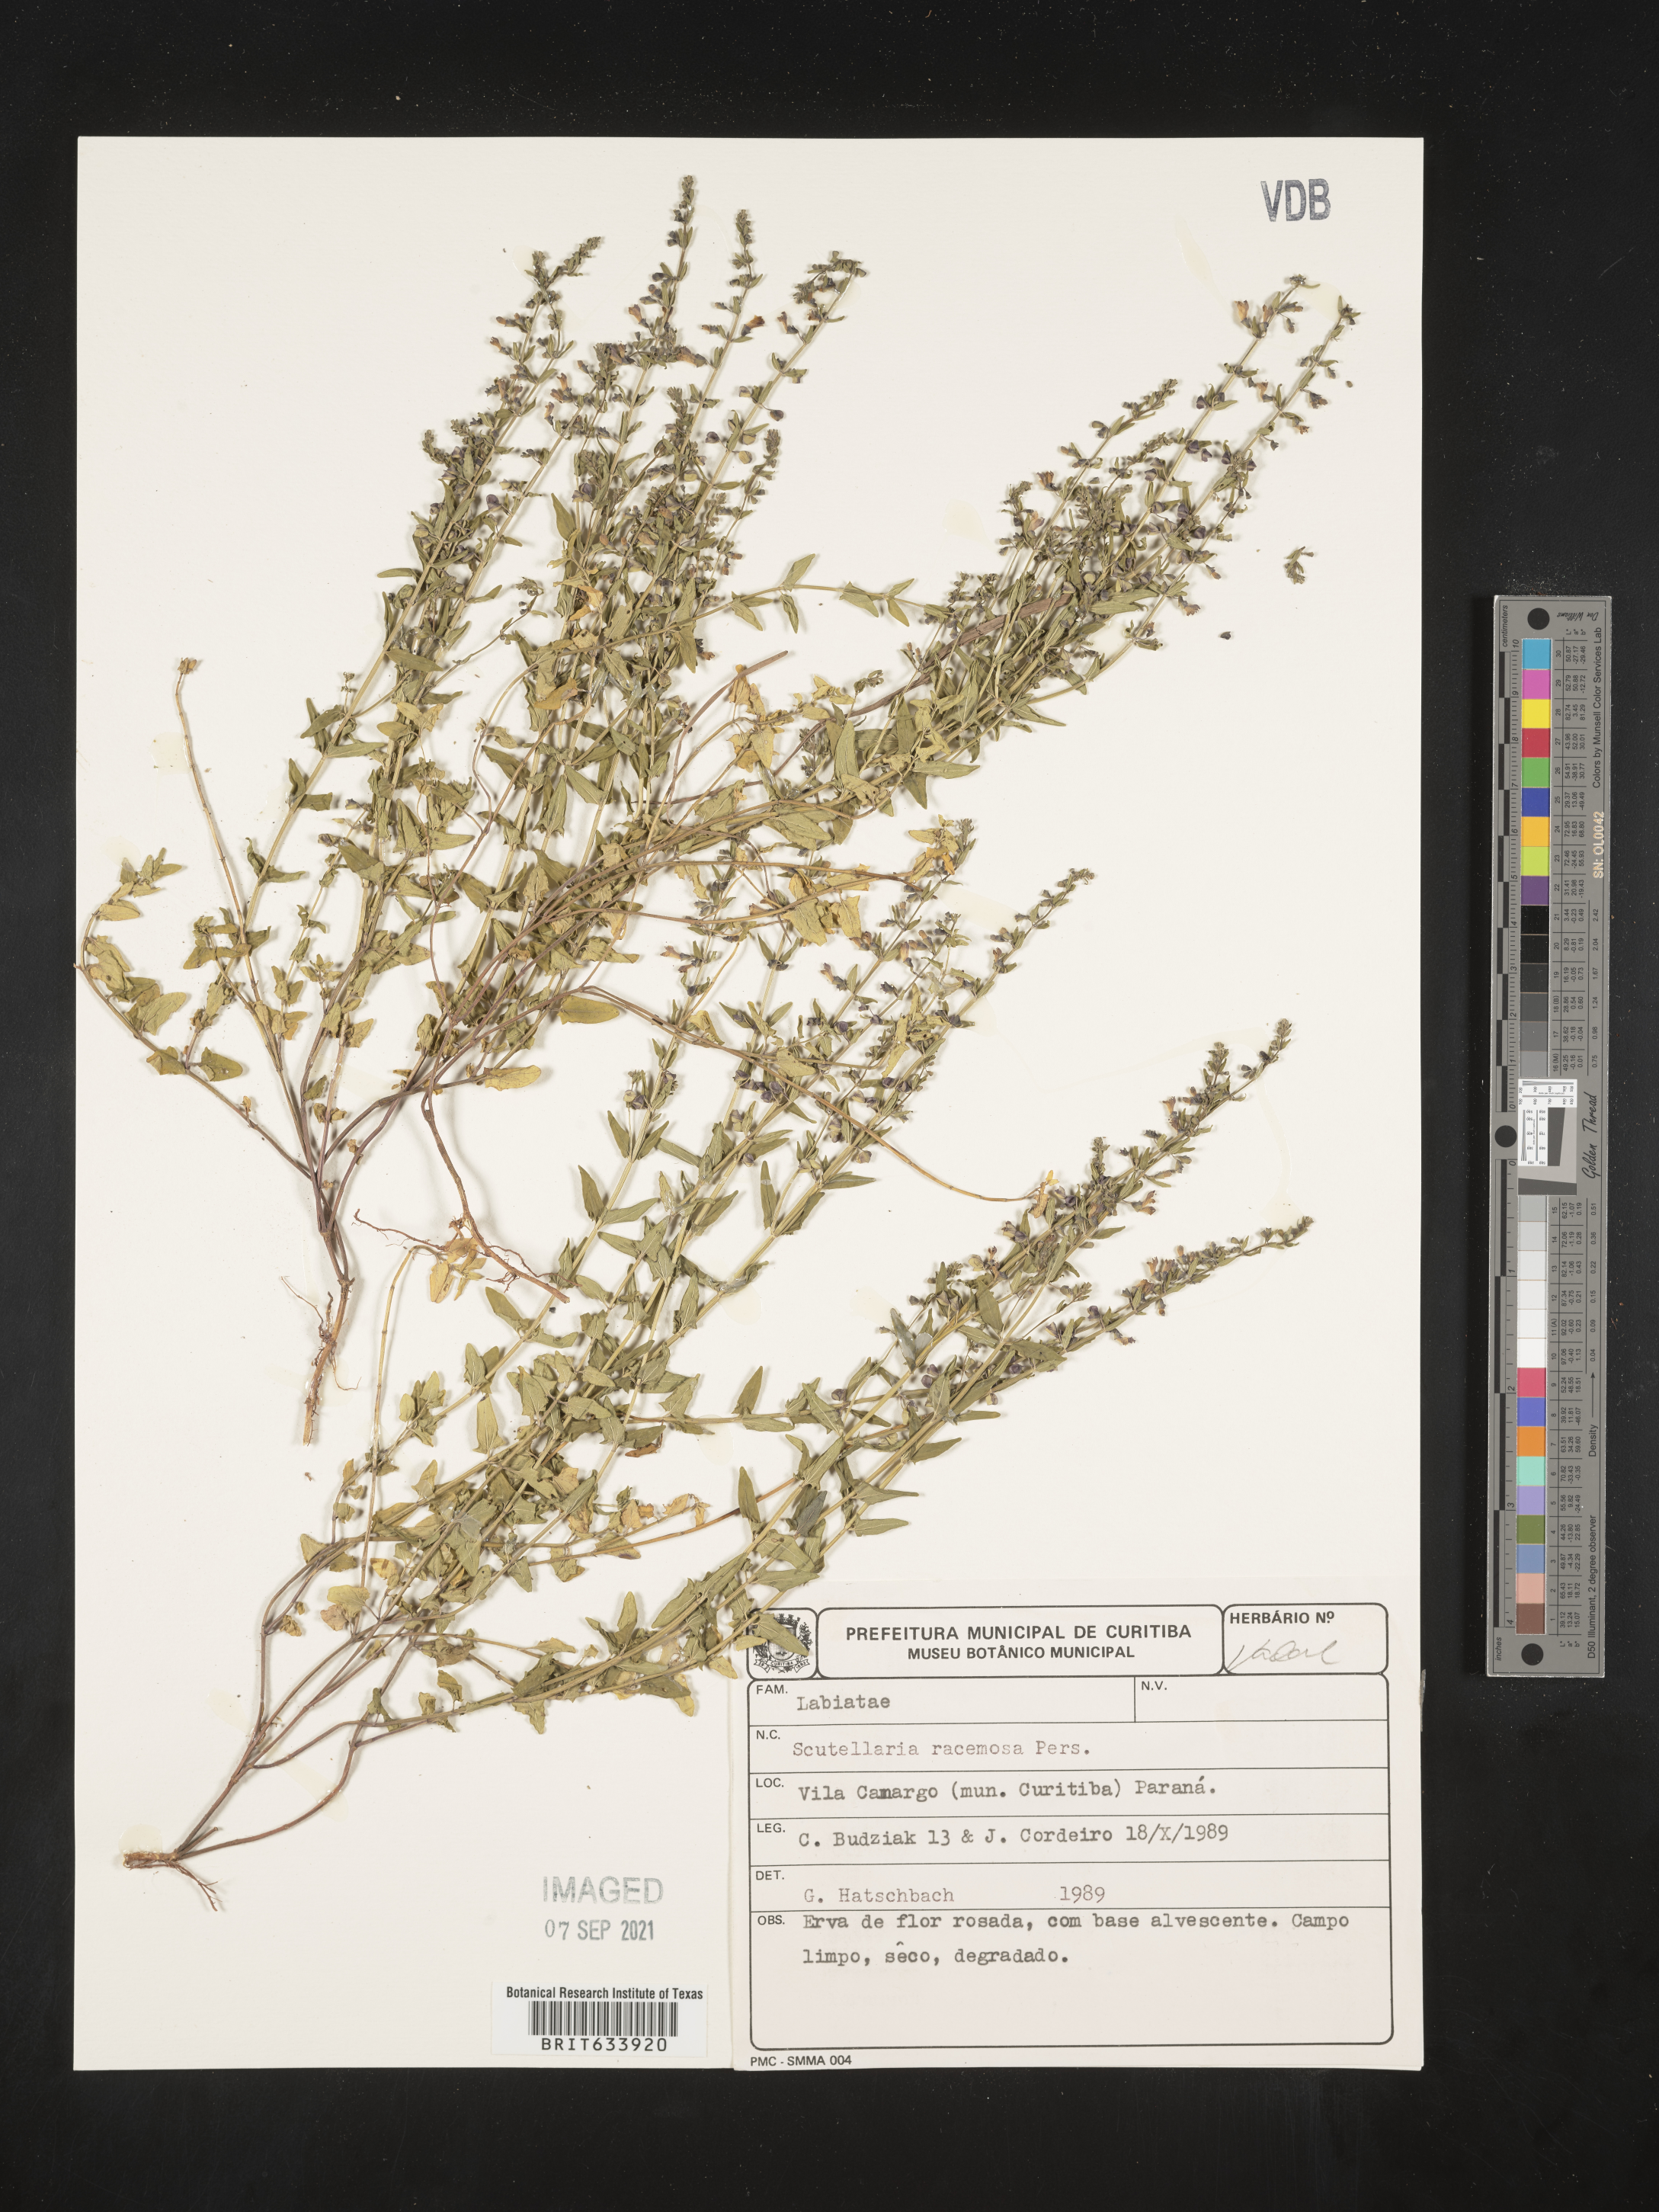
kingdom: Plantae
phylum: Tracheophyta
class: Magnoliopsida
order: Lamiales
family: Lamiaceae
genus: Scutellaria
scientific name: Scutellaria
